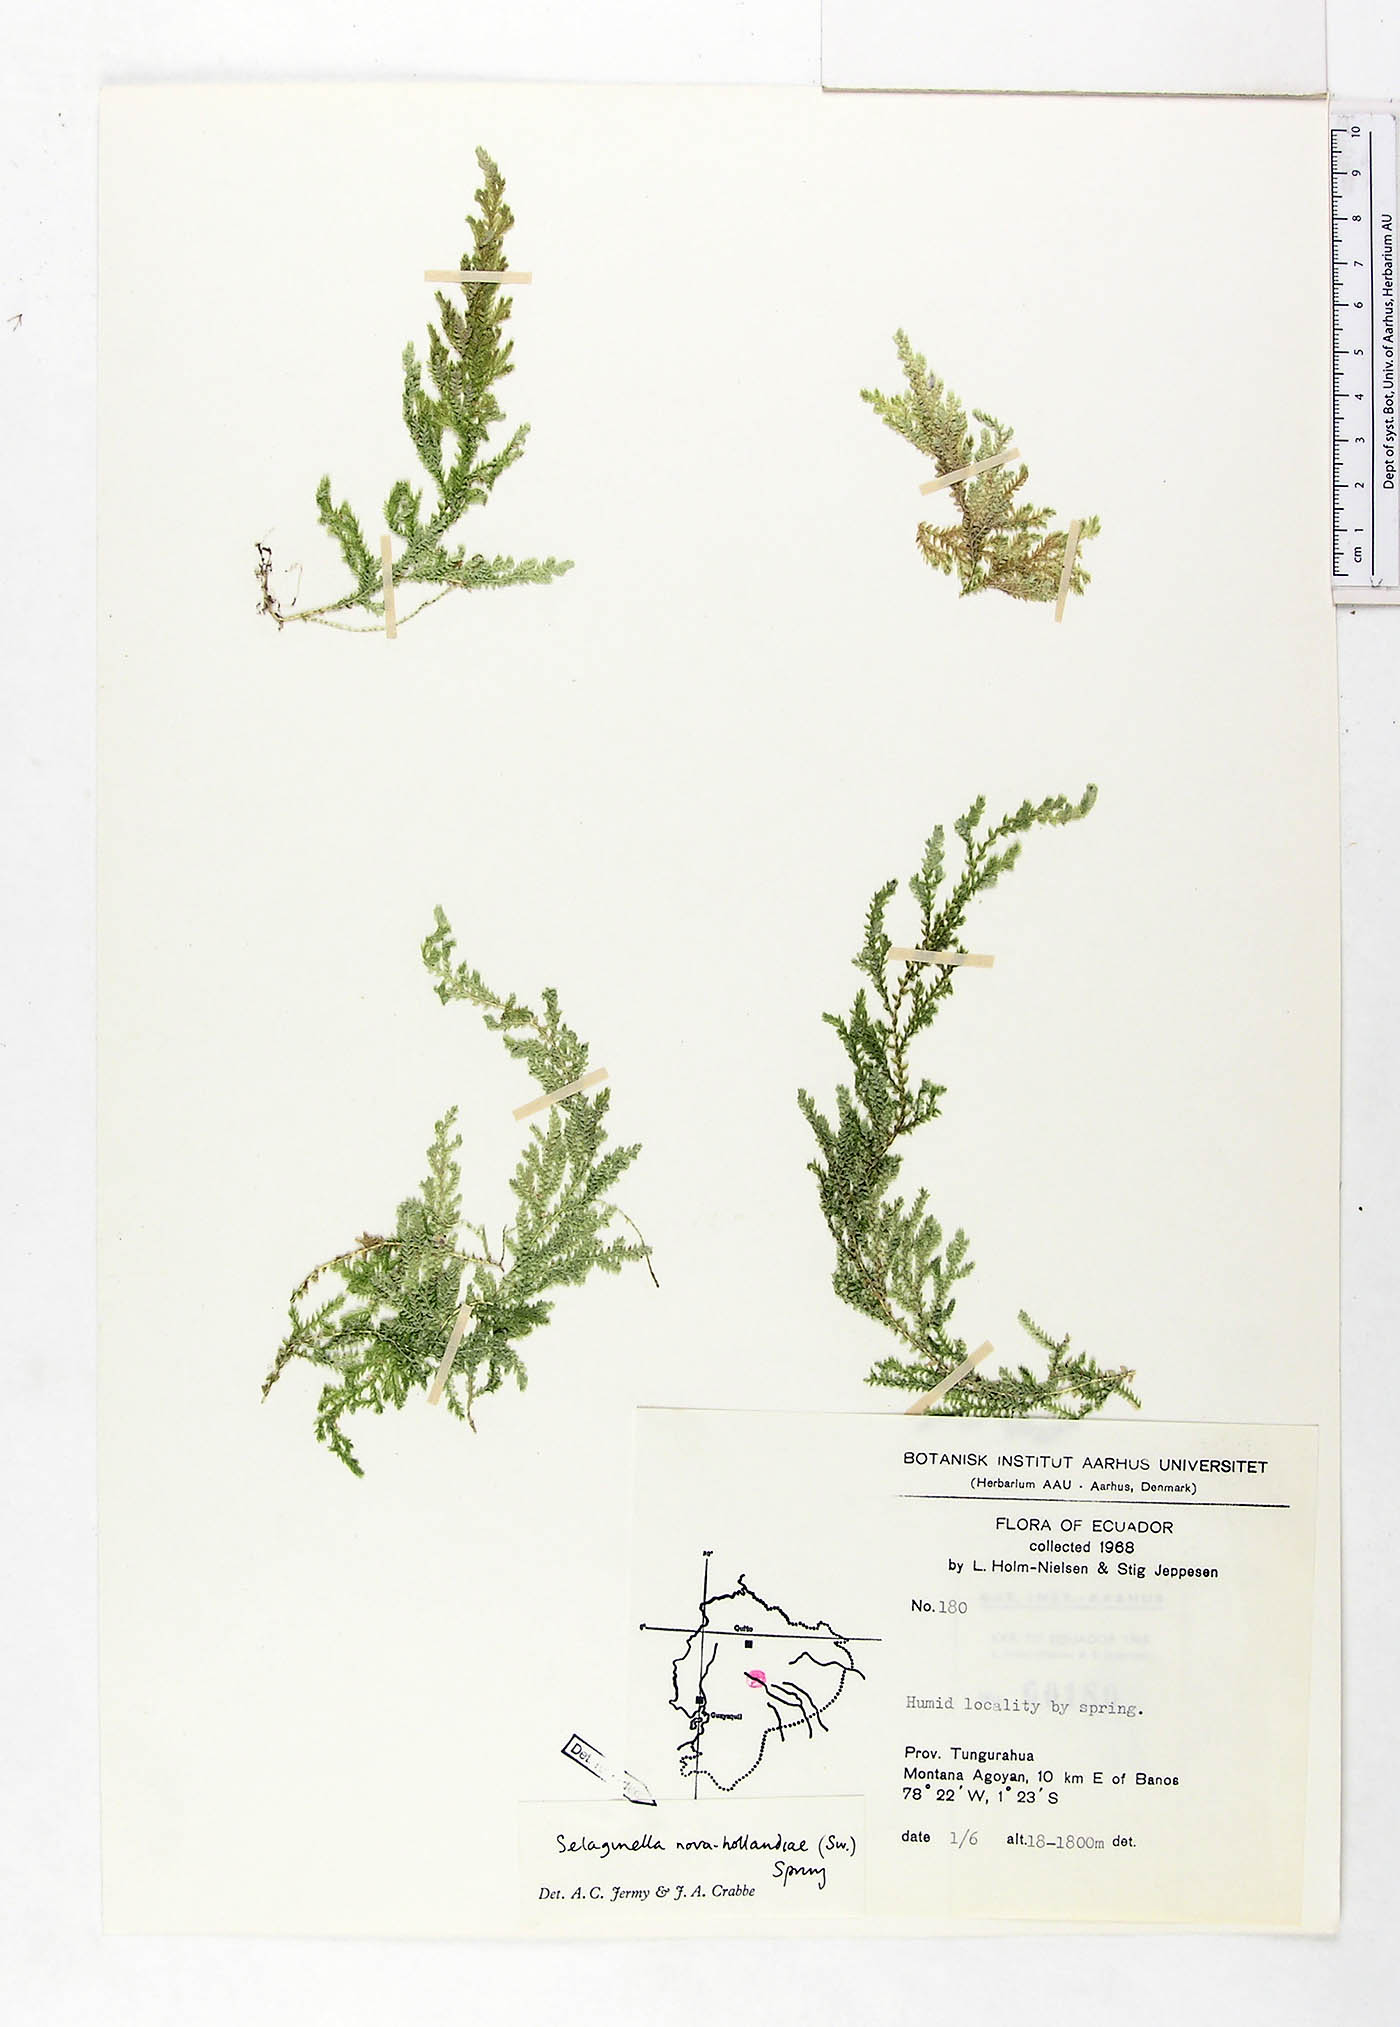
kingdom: Plantae
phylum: Tracheophyta
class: Lycopodiopsida
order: Selaginellales
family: Selaginellaceae
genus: Selaginella
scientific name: Selaginella novae-hollandiae
